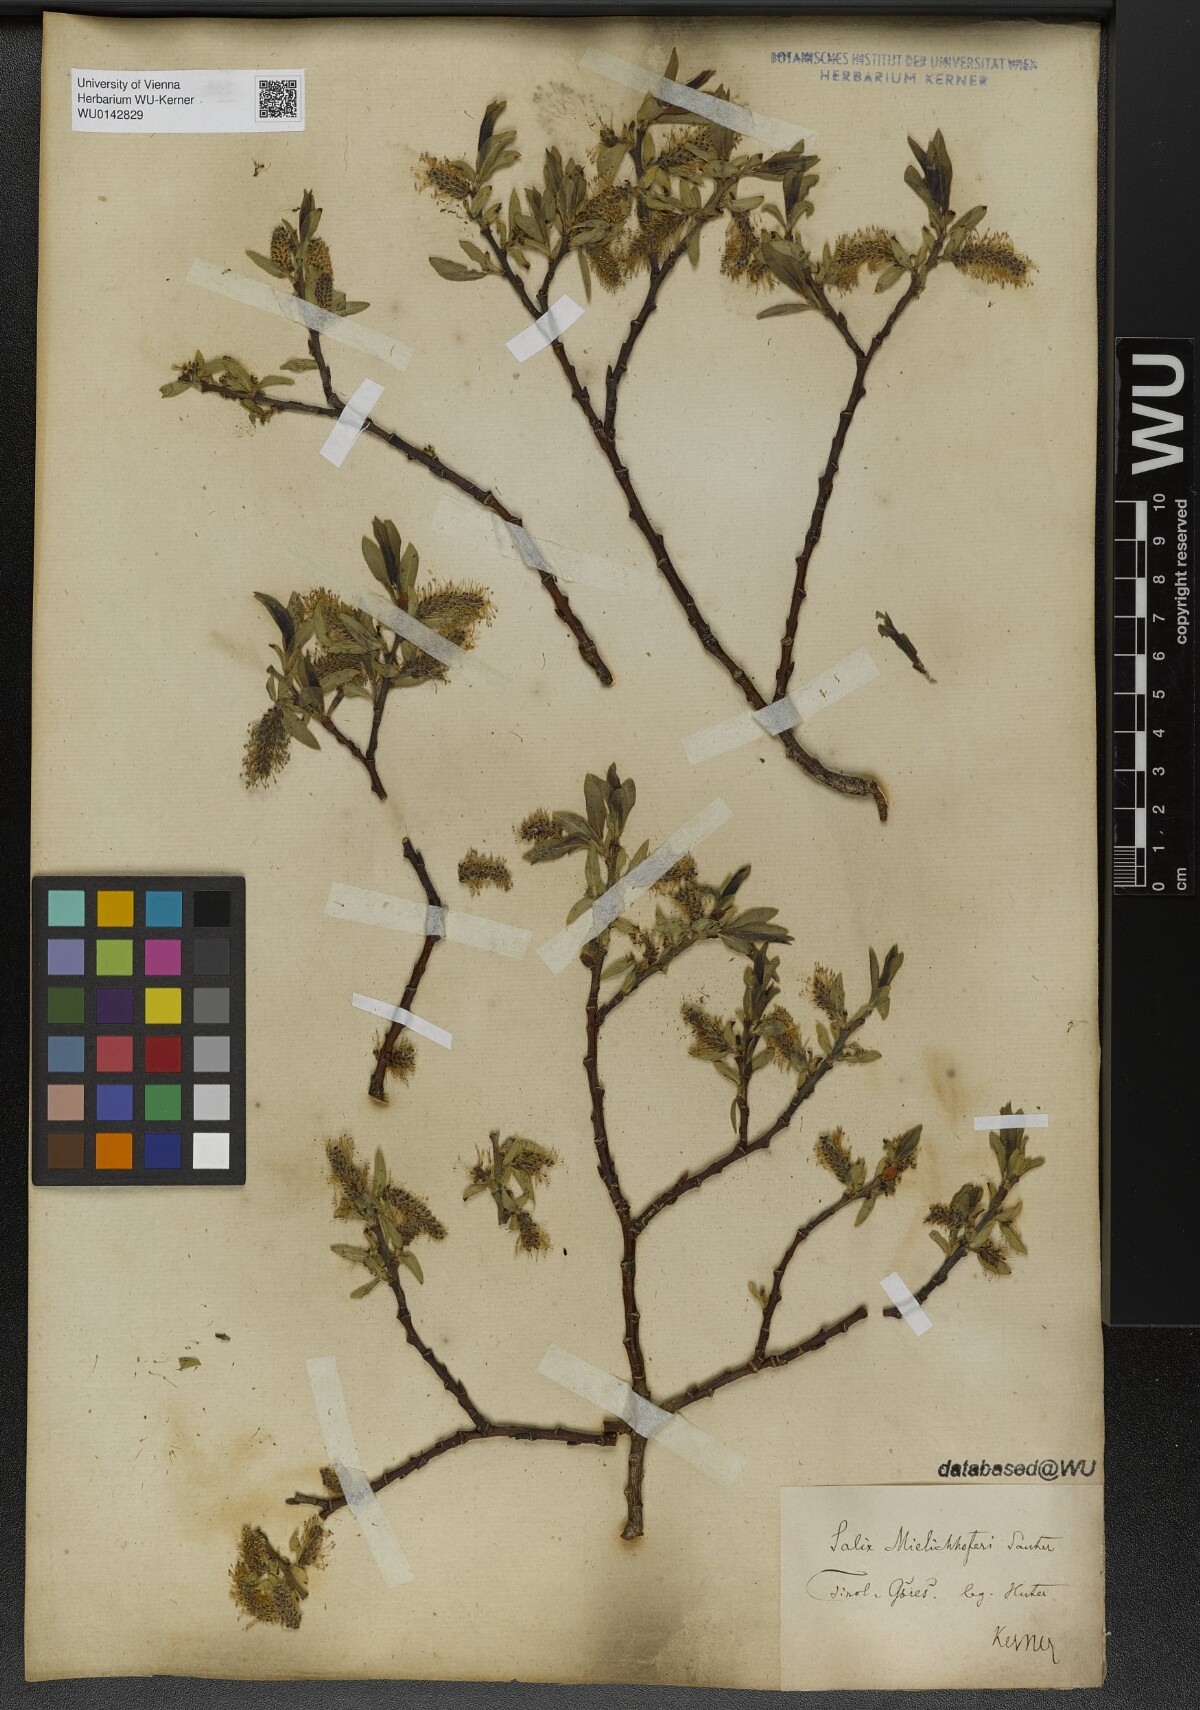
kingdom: Plantae
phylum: Tracheophyta
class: Magnoliopsida
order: Malpighiales
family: Salicaceae
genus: Salix
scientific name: Salix mielichhoferi
